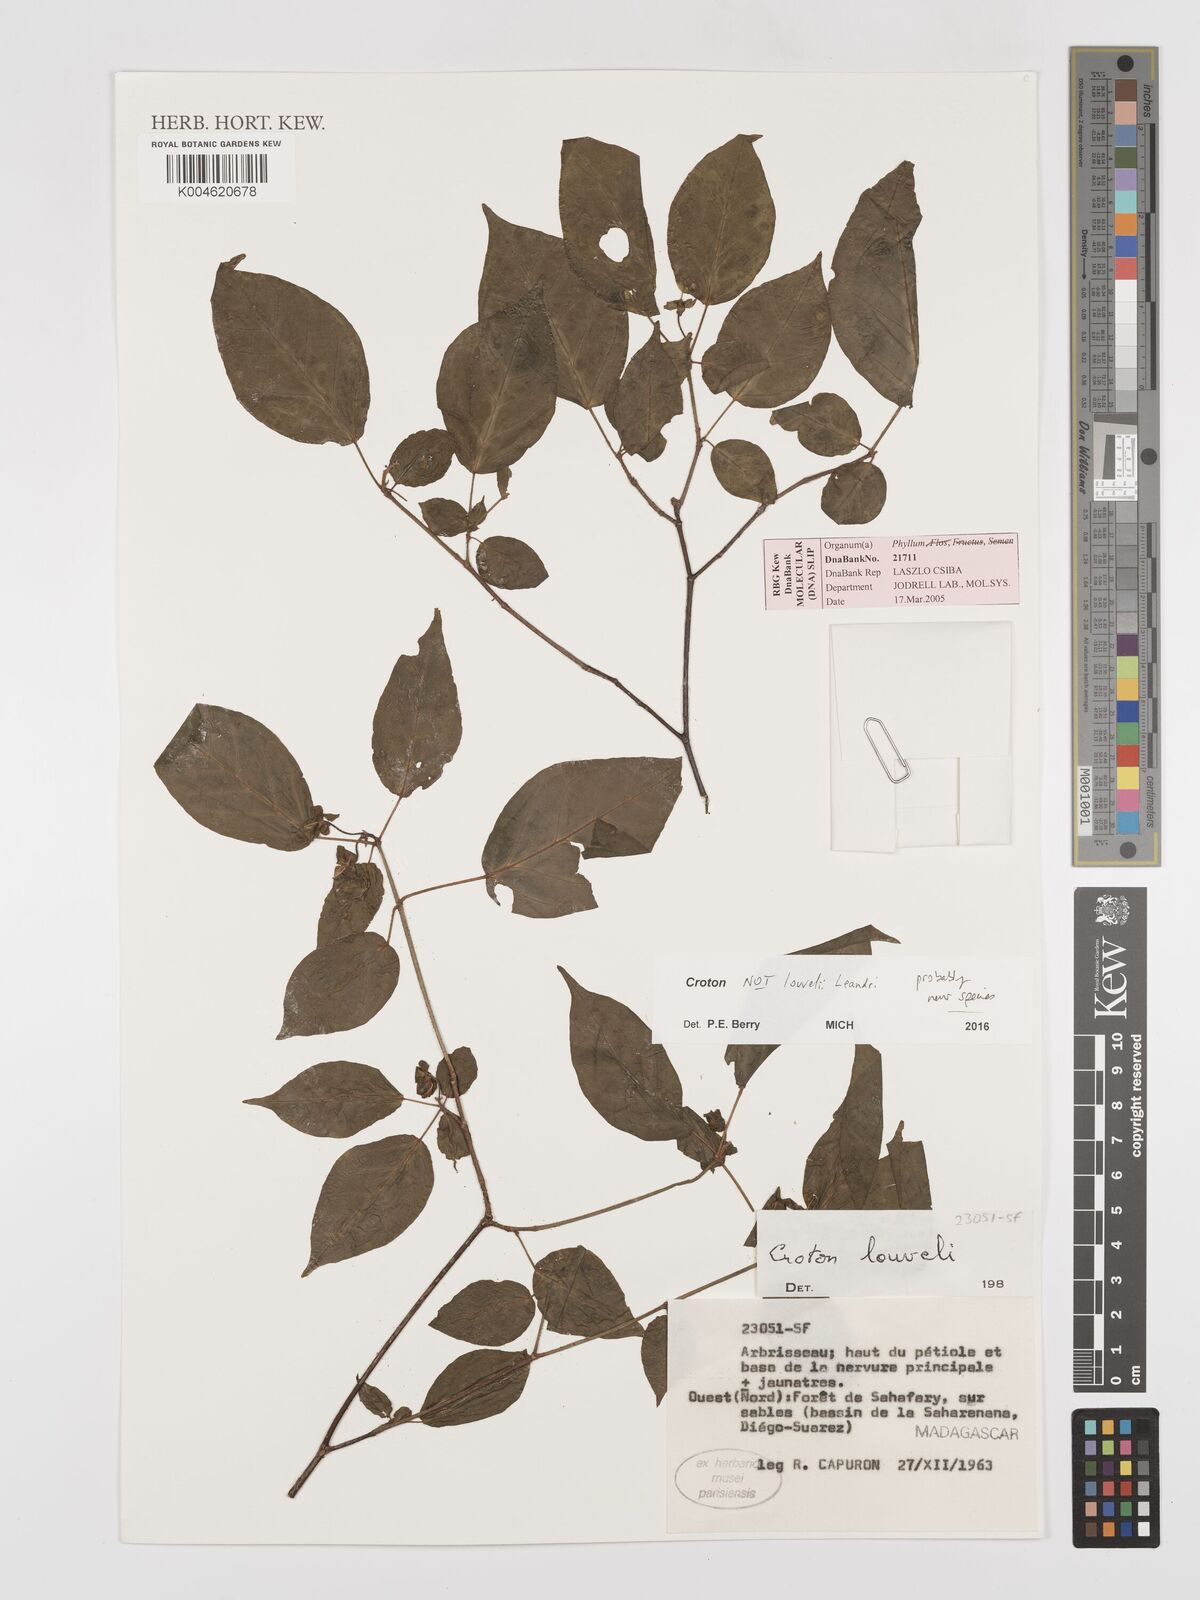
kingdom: Plantae
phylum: Tracheophyta
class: Magnoliopsida
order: Malpighiales
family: Euphorbiaceae
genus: Croton
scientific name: Croton
